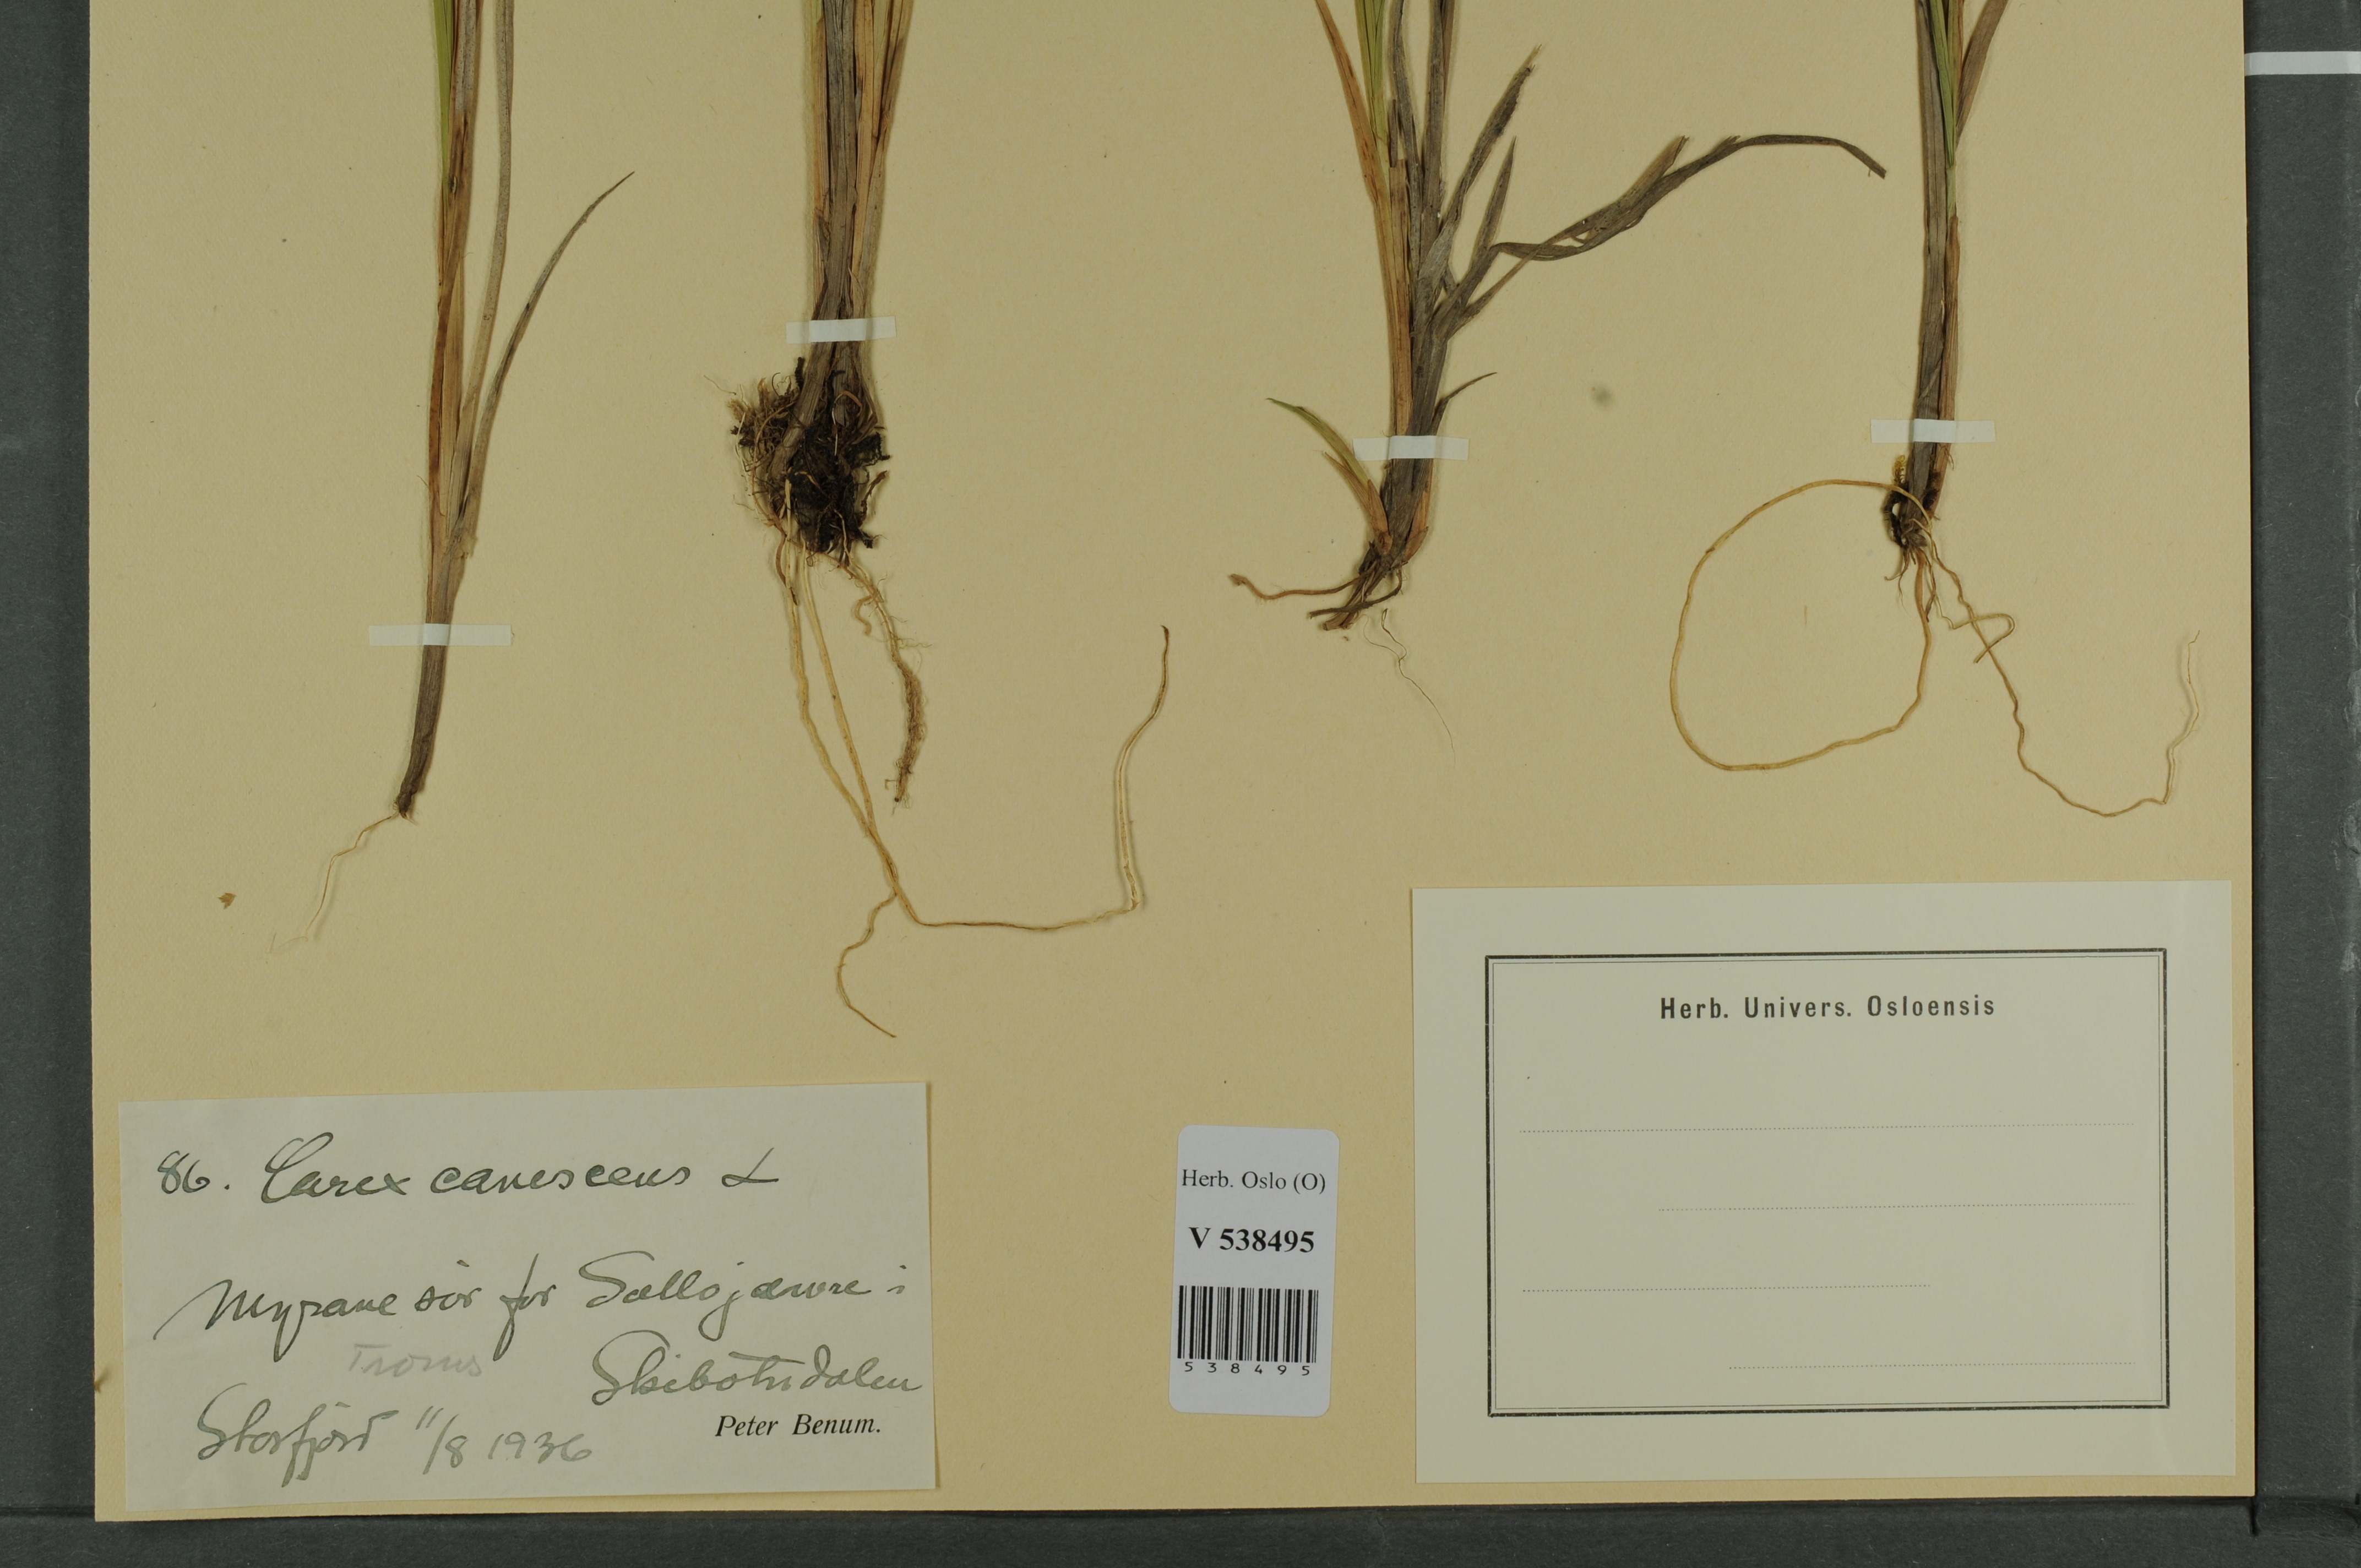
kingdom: Plantae
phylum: Tracheophyta
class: Liliopsida
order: Poales
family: Cyperaceae
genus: Carex
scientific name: Carex canescens
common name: White sedge
